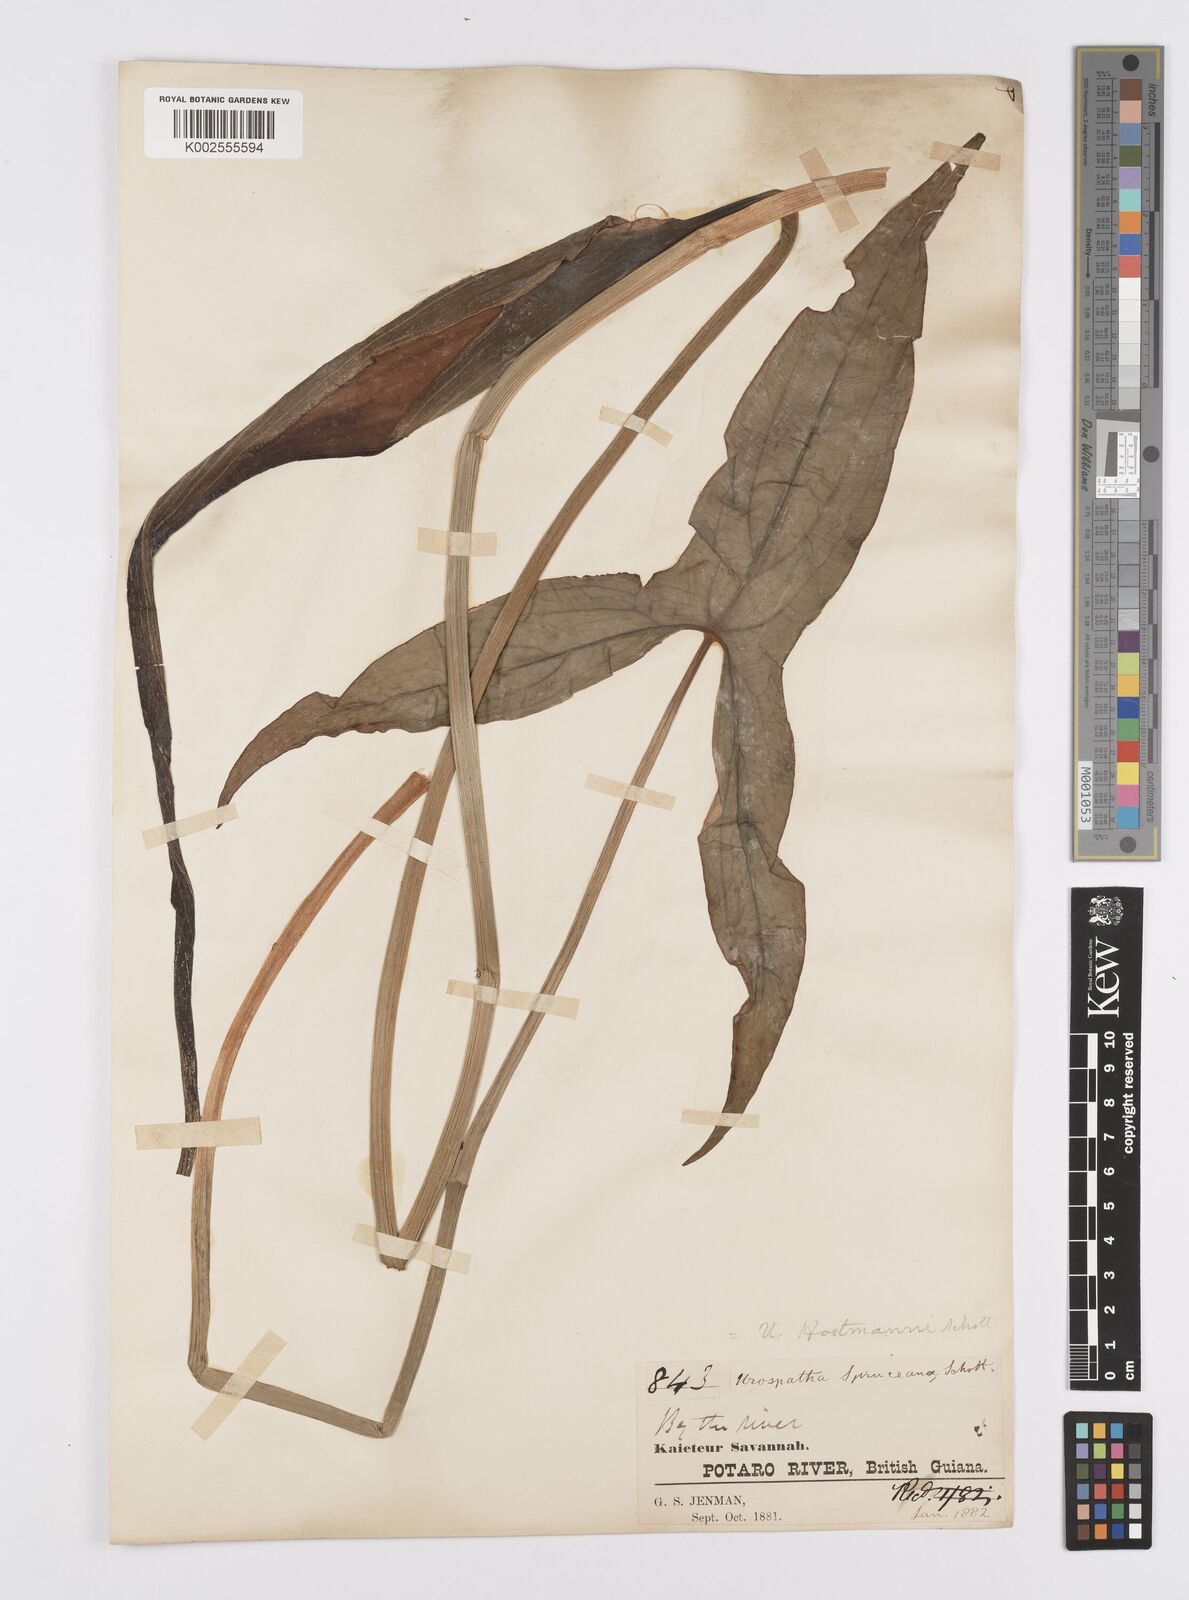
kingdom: Plantae
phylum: Tracheophyta
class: Liliopsida
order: Alismatales
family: Araceae
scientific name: Araceae
